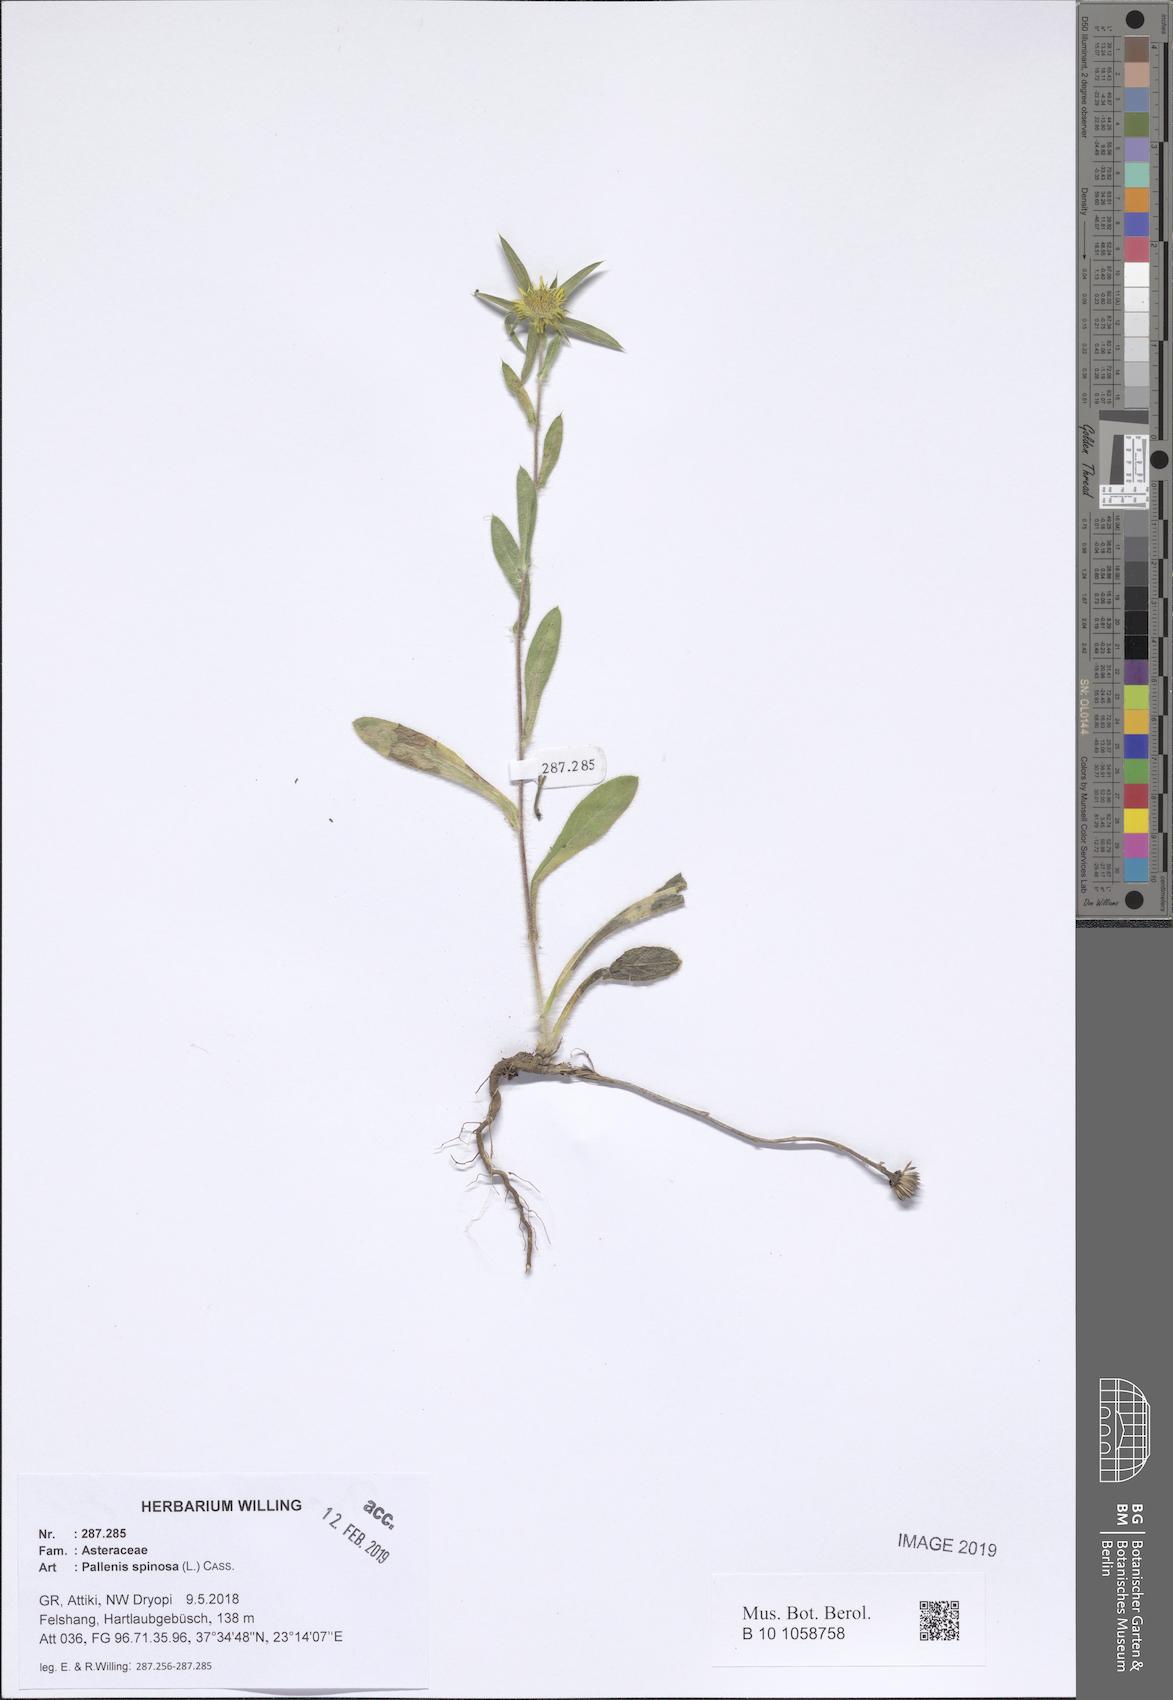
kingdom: Plantae
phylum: Tracheophyta
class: Magnoliopsida
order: Asterales
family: Asteraceae
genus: Pallenis
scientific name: Pallenis spinosa
